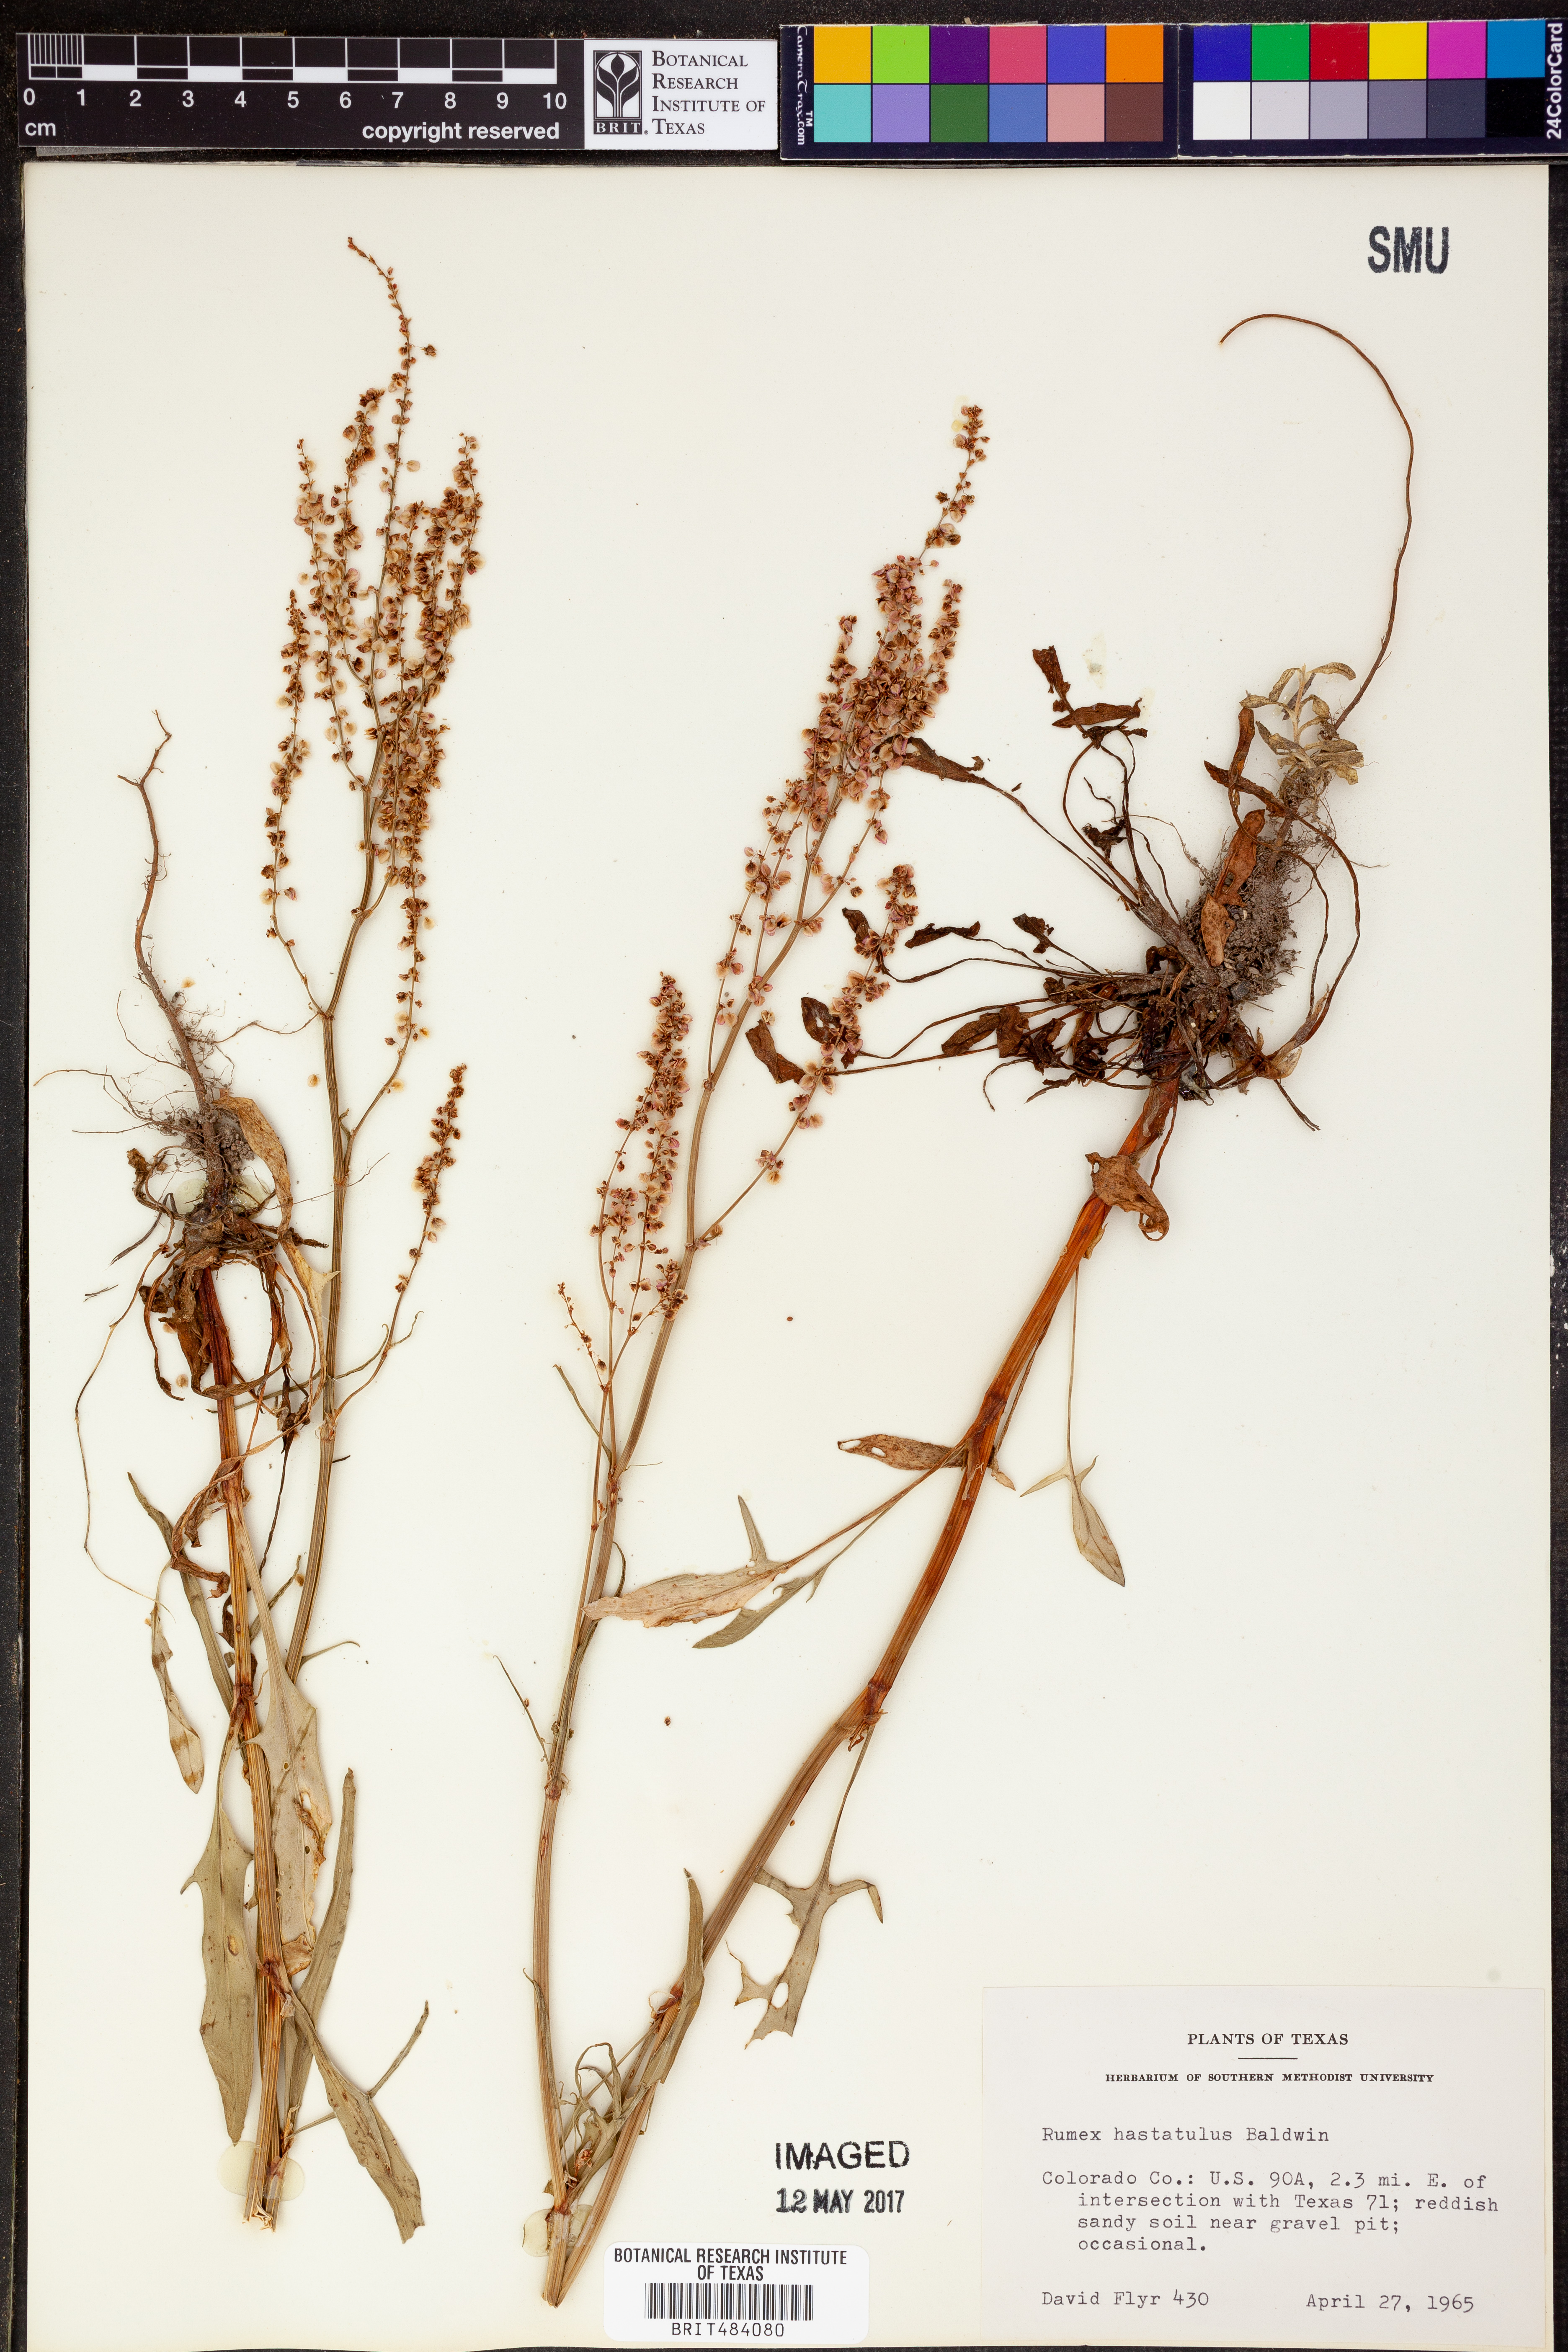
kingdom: Plantae
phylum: Tracheophyta
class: Magnoliopsida
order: Caryophyllales
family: Polygonaceae
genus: Rumex
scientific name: Rumex hastatulus
